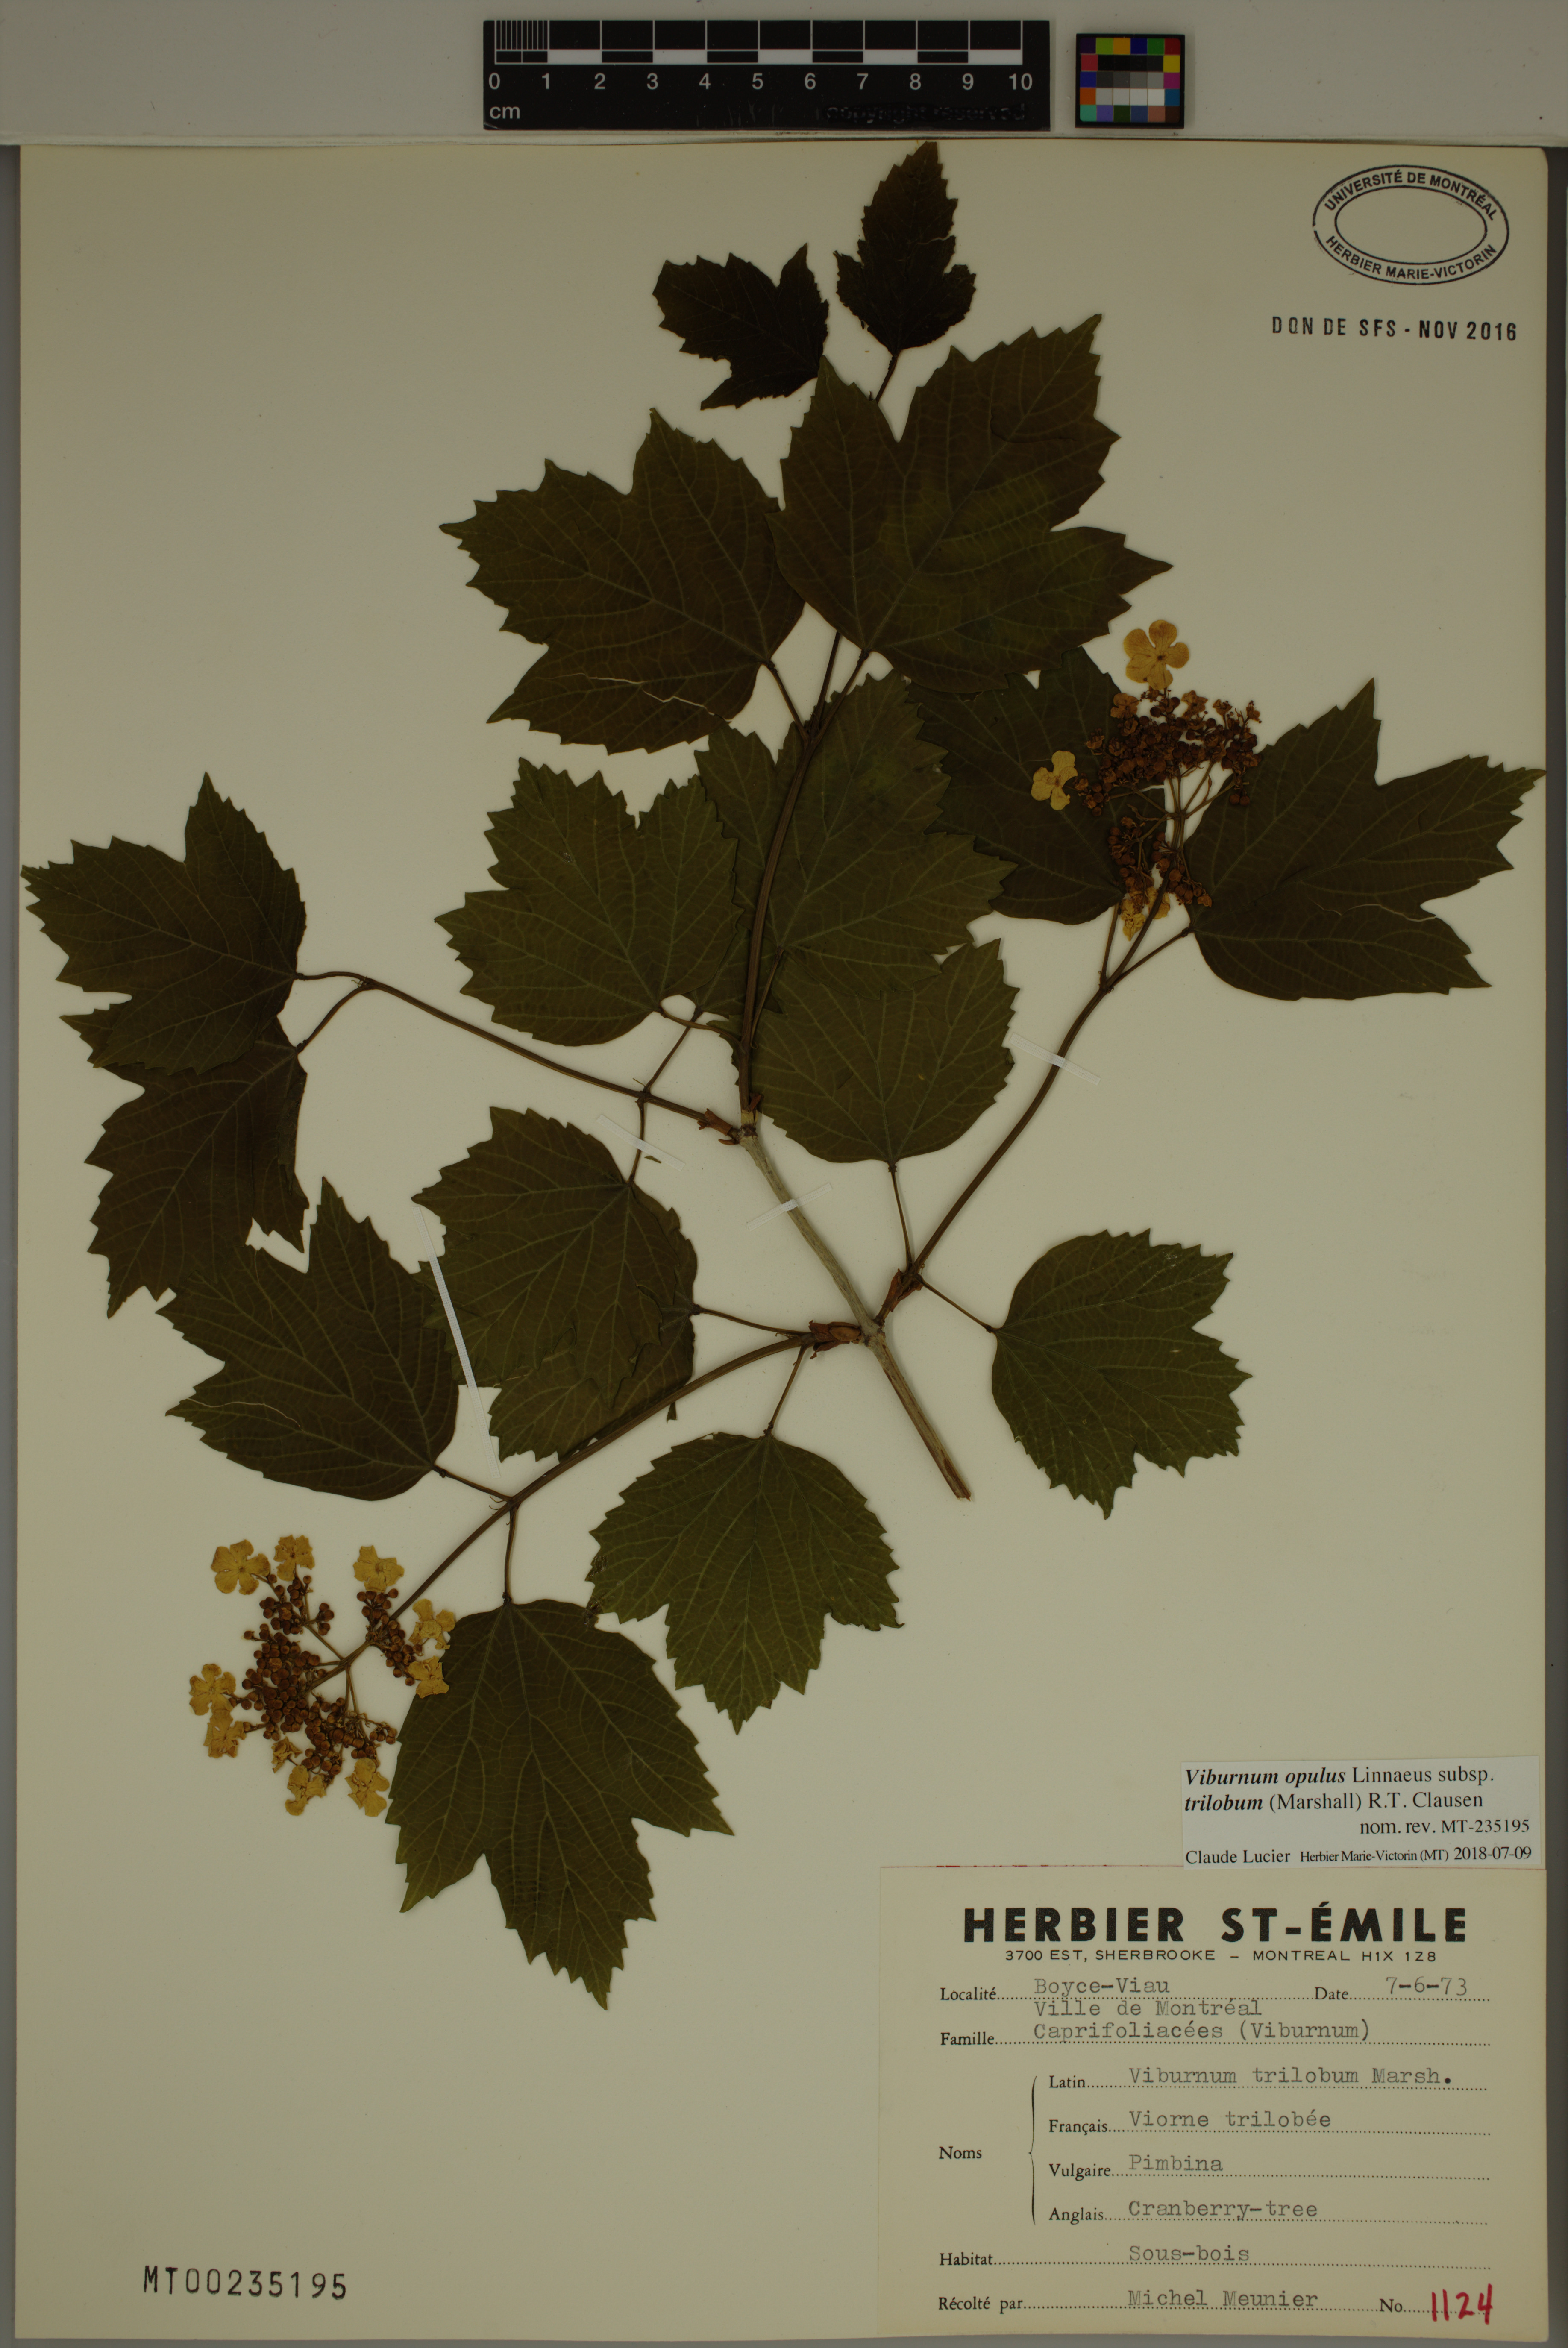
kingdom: Plantae
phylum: Tracheophyta
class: Magnoliopsida
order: Dipsacales
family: Viburnaceae
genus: Viburnum
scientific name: Viburnum trilobum
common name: American cranberrybush
